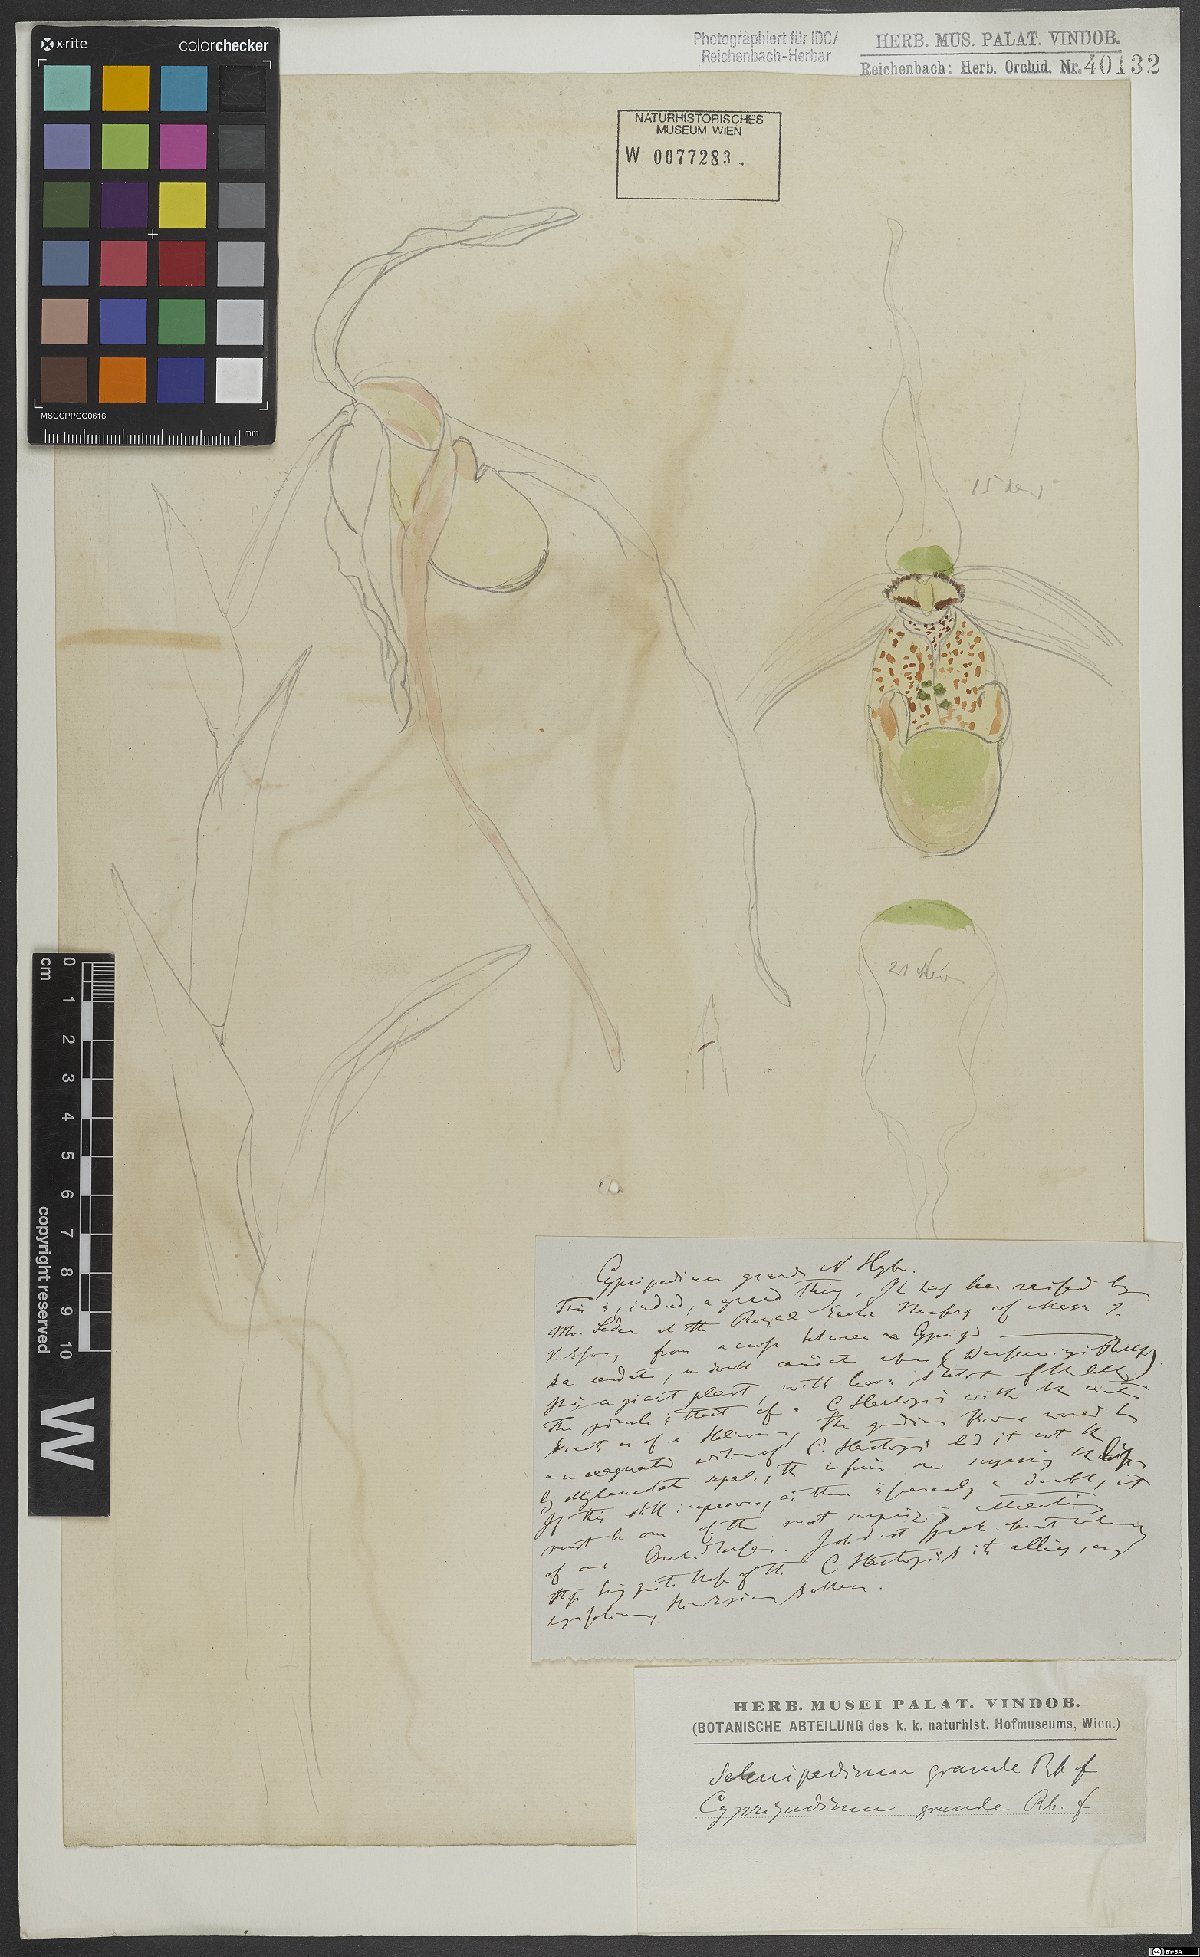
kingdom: Plantae
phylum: Tracheophyta
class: Liliopsida
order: Asparagales
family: Orchidaceae
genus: Phragmipedium
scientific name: Phragmipedium grande
